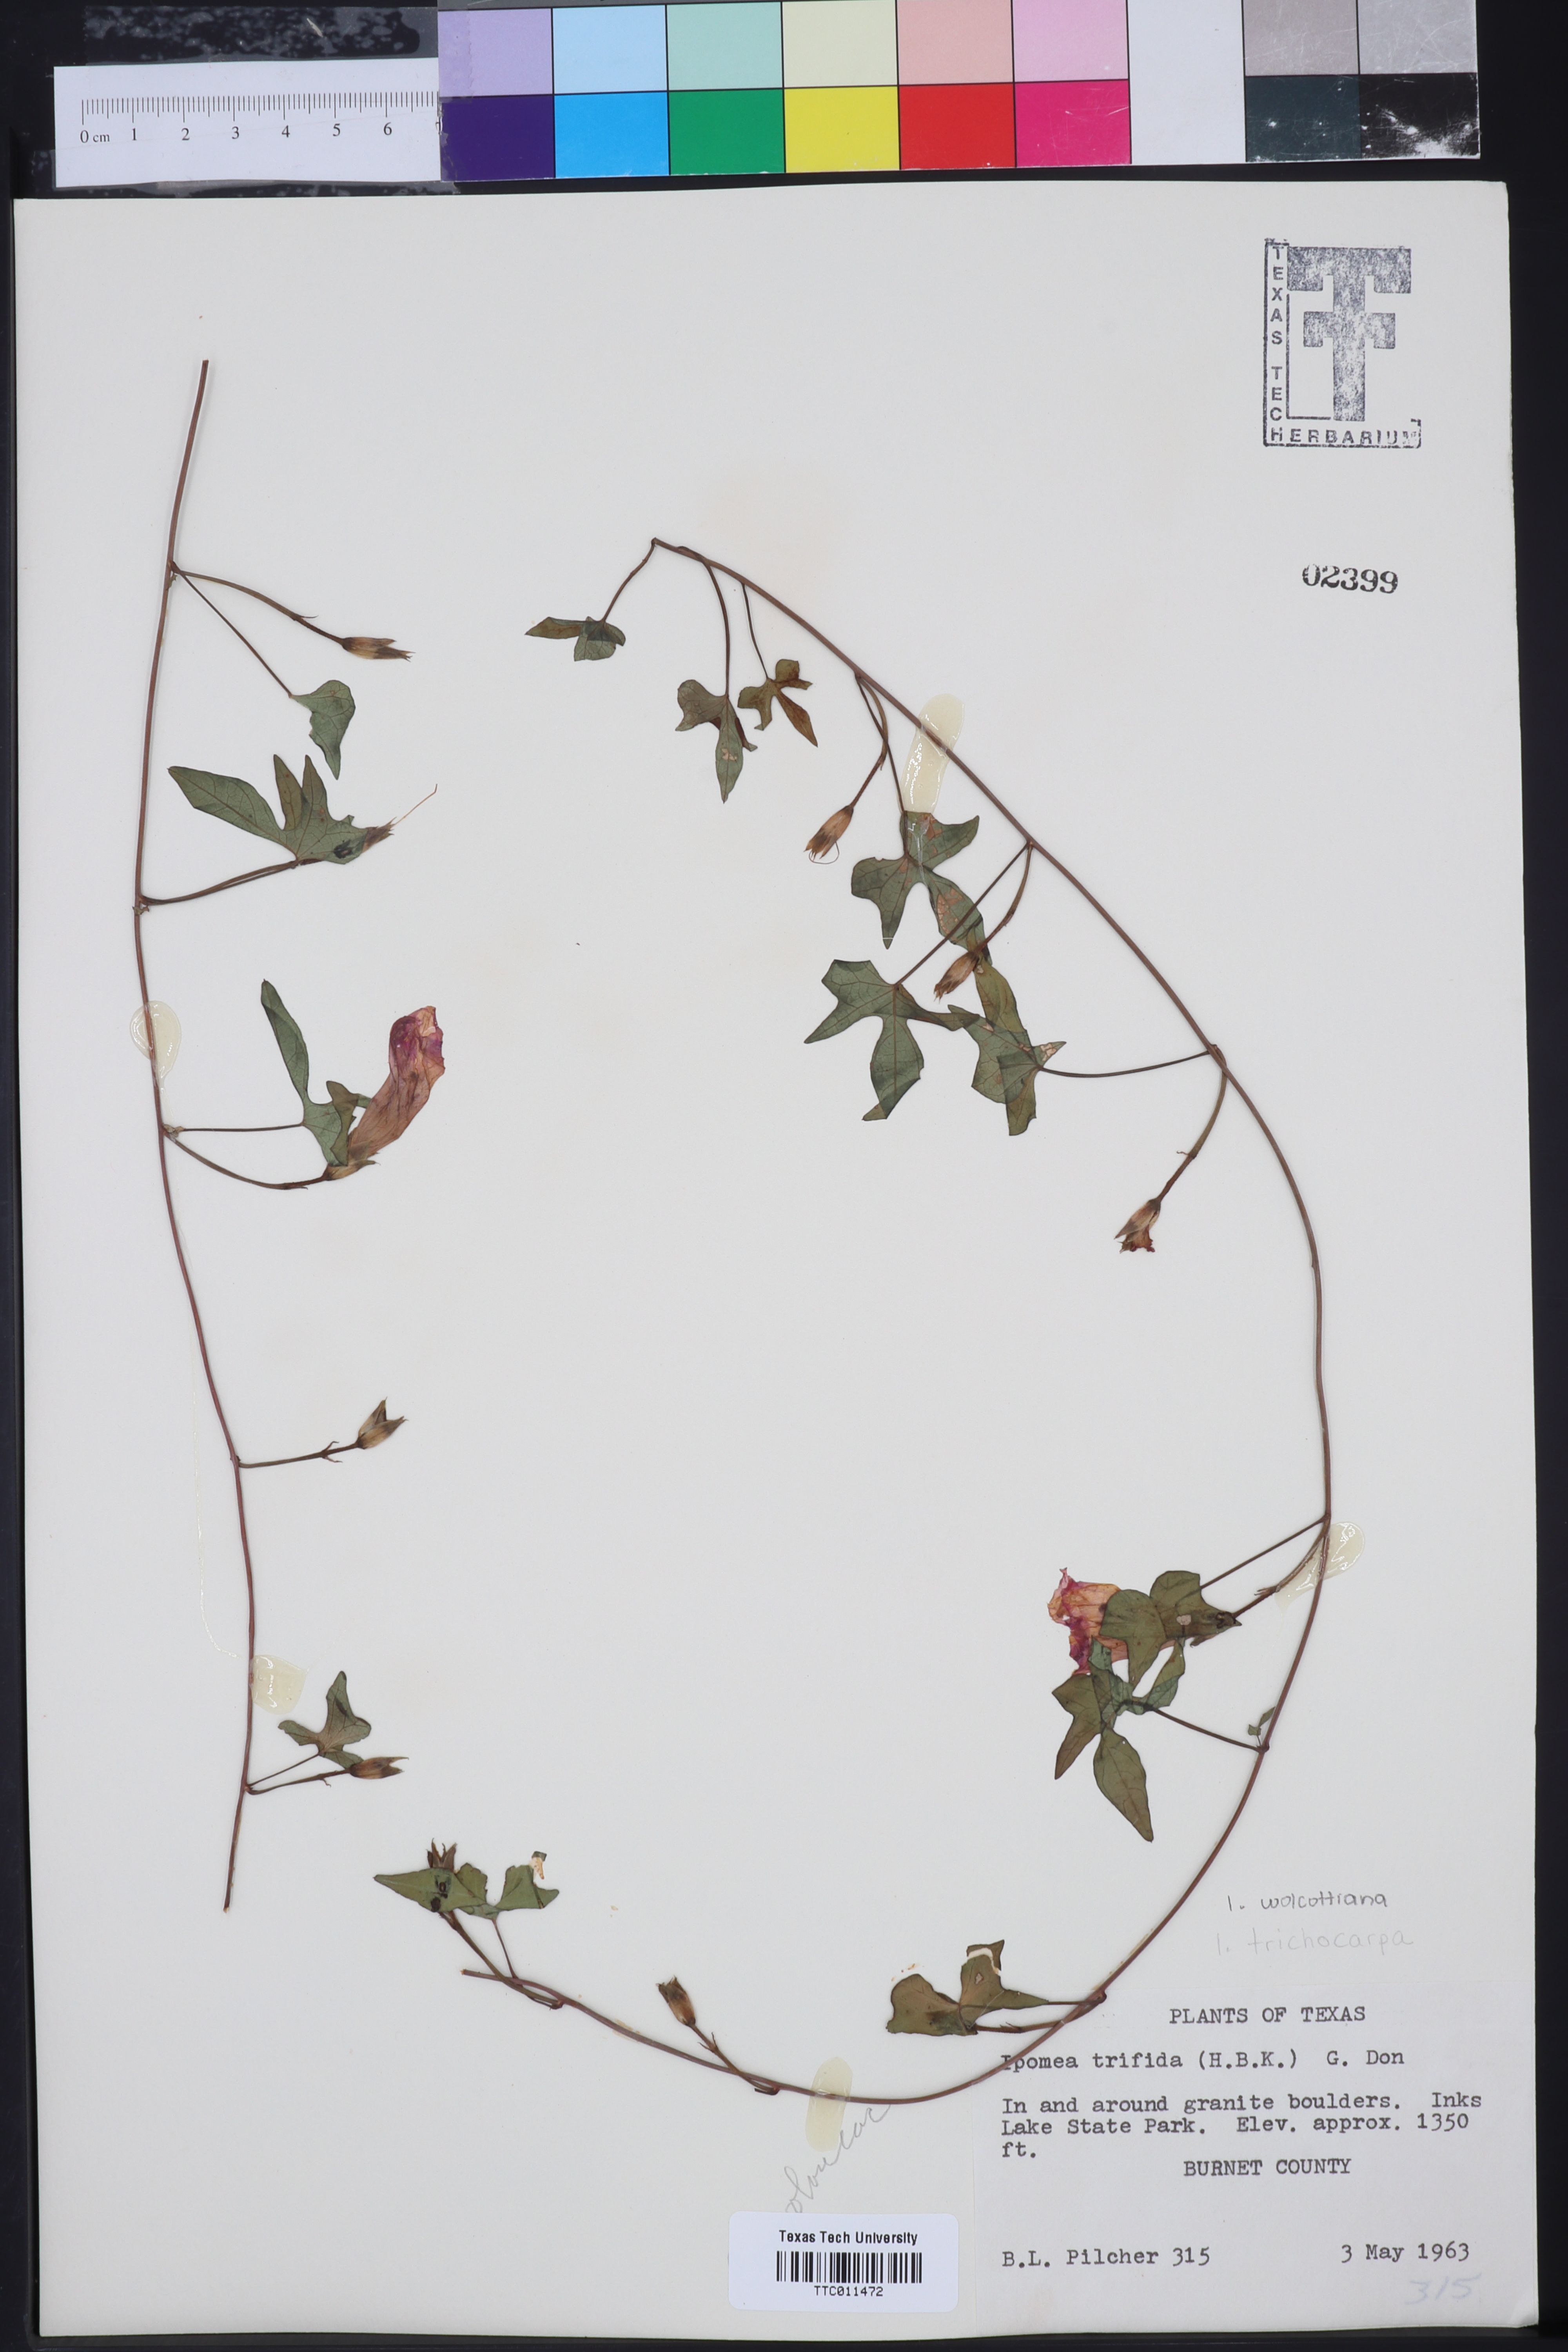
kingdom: Plantae
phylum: Tracheophyta
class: Magnoliopsida
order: Solanales
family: Convolvulaceae
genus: Ipomoea
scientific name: Ipomoea trifida
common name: Cotton morningglory
